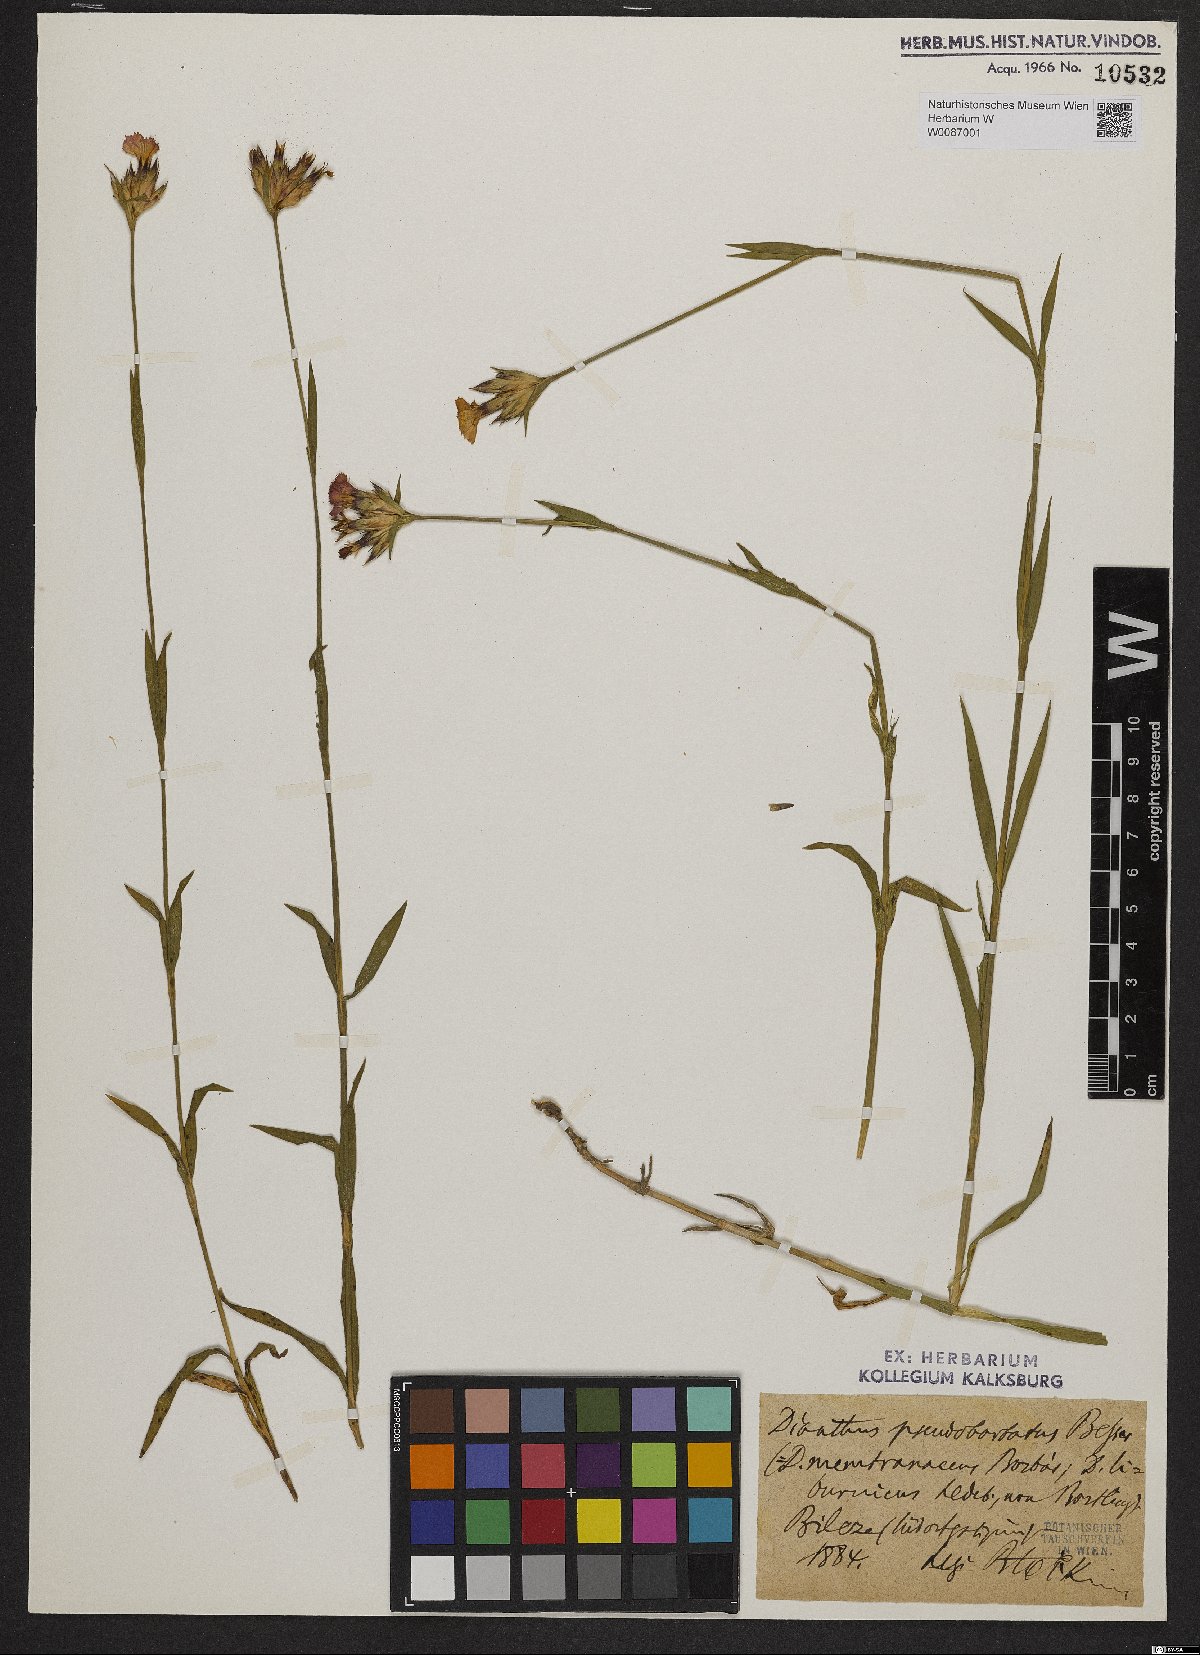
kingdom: Plantae
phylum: Tracheophyta
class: Magnoliopsida
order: Caryophyllales
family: Caryophyllaceae
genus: Dianthus
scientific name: Dianthus trifasciculatus
